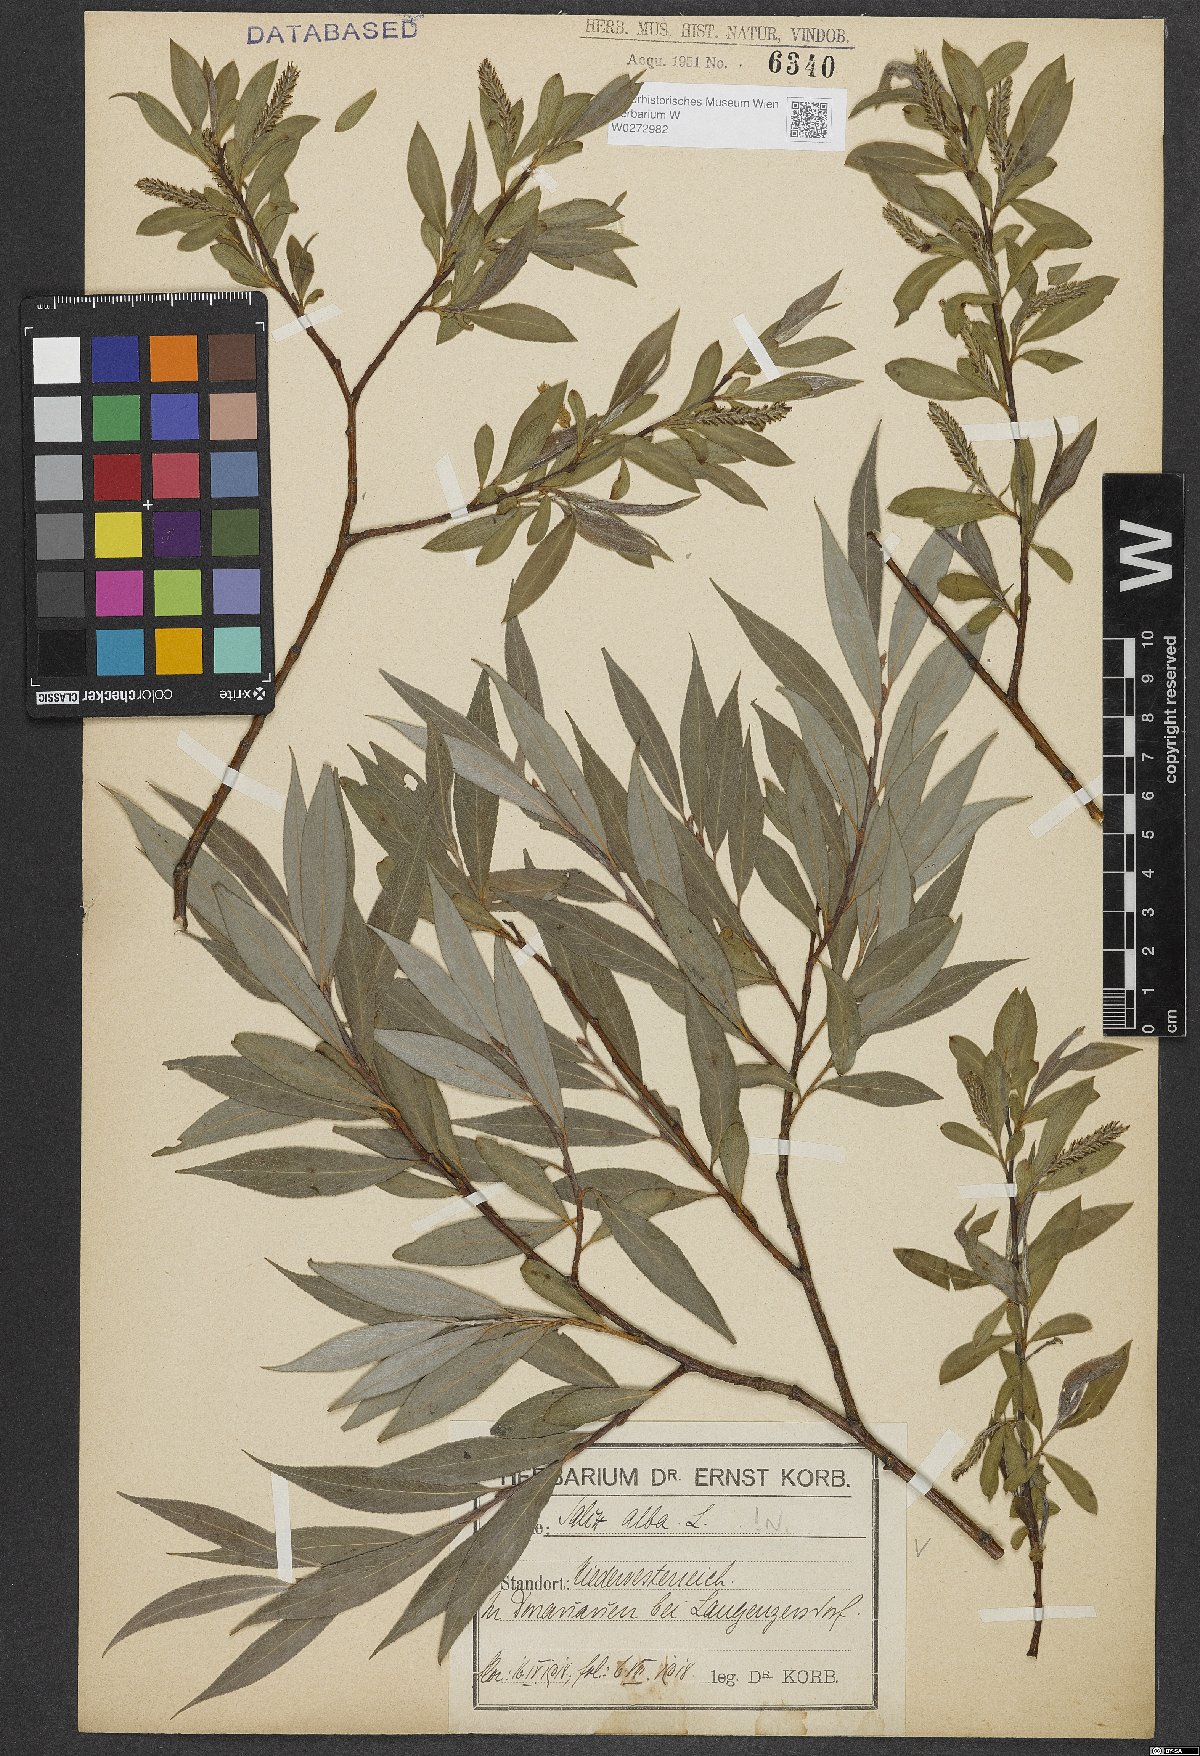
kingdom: Plantae
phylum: Tracheophyta
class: Magnoliopsida
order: Malpighiales
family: Salicaceae
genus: Salix
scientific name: Salix alba
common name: White willow
